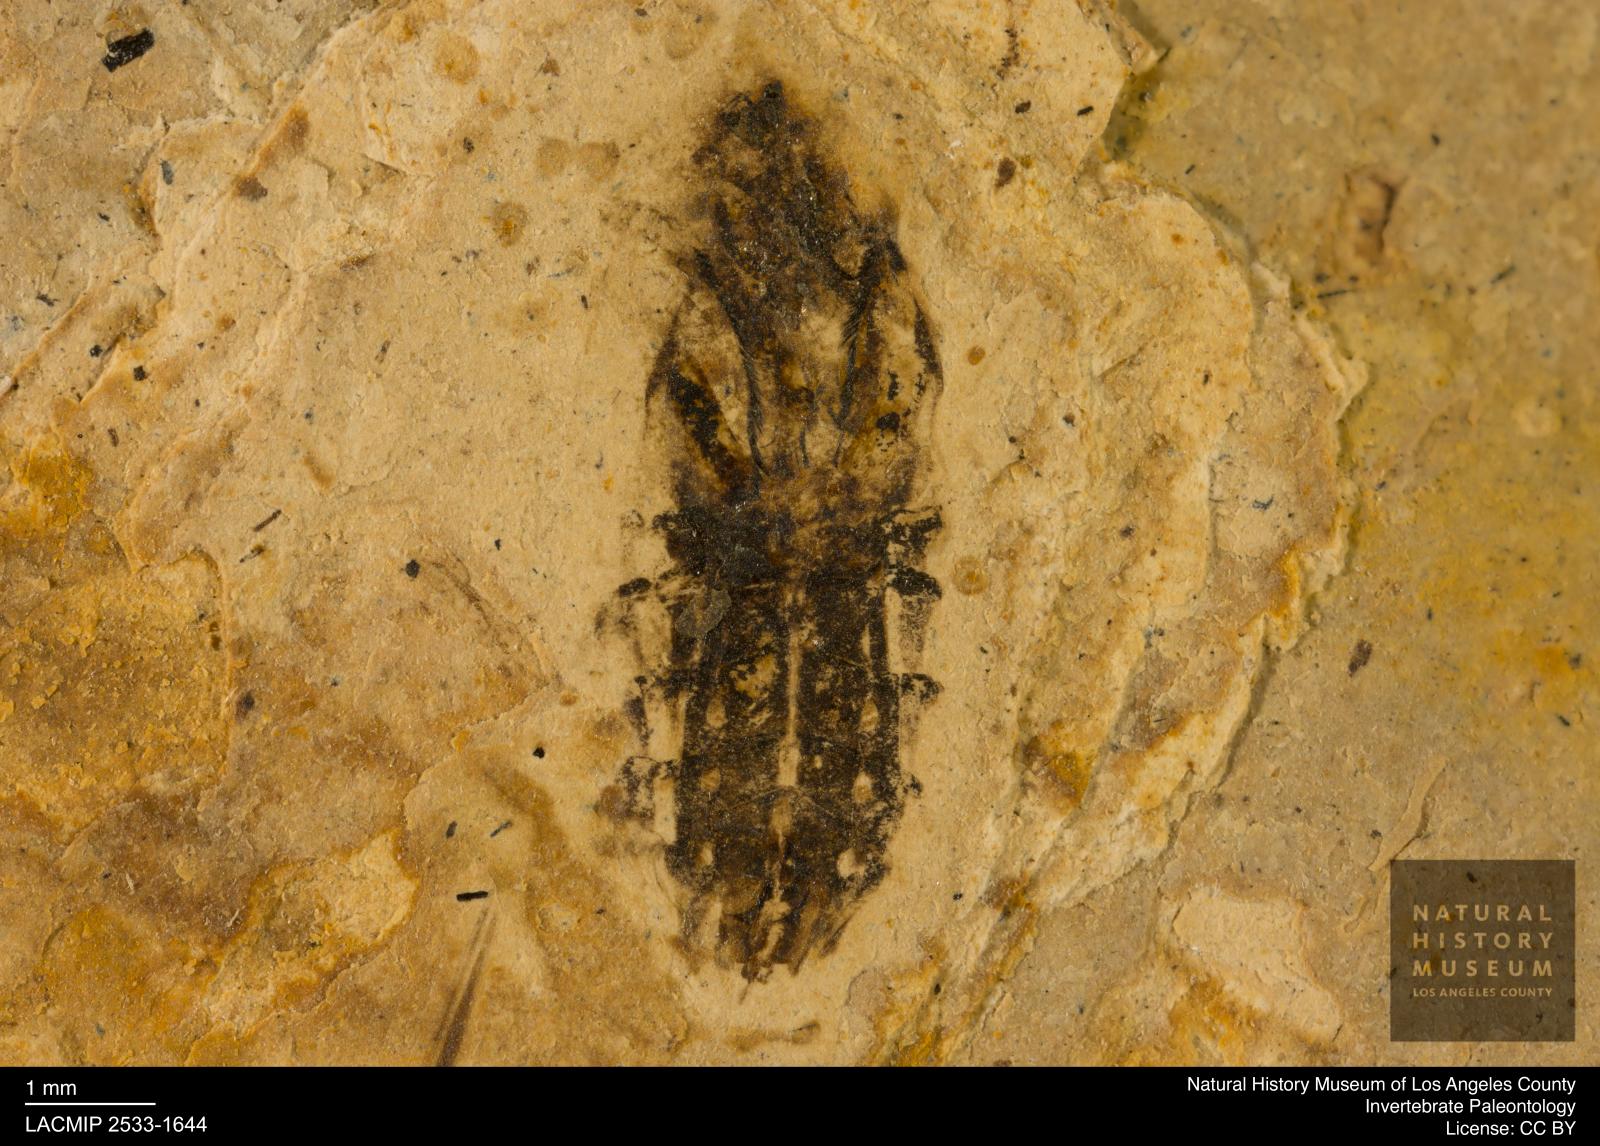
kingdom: Animalia
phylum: Arthropoda
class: Insecta
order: Hemiptera
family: Notonectidae
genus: Notonecta
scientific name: Notonecta
